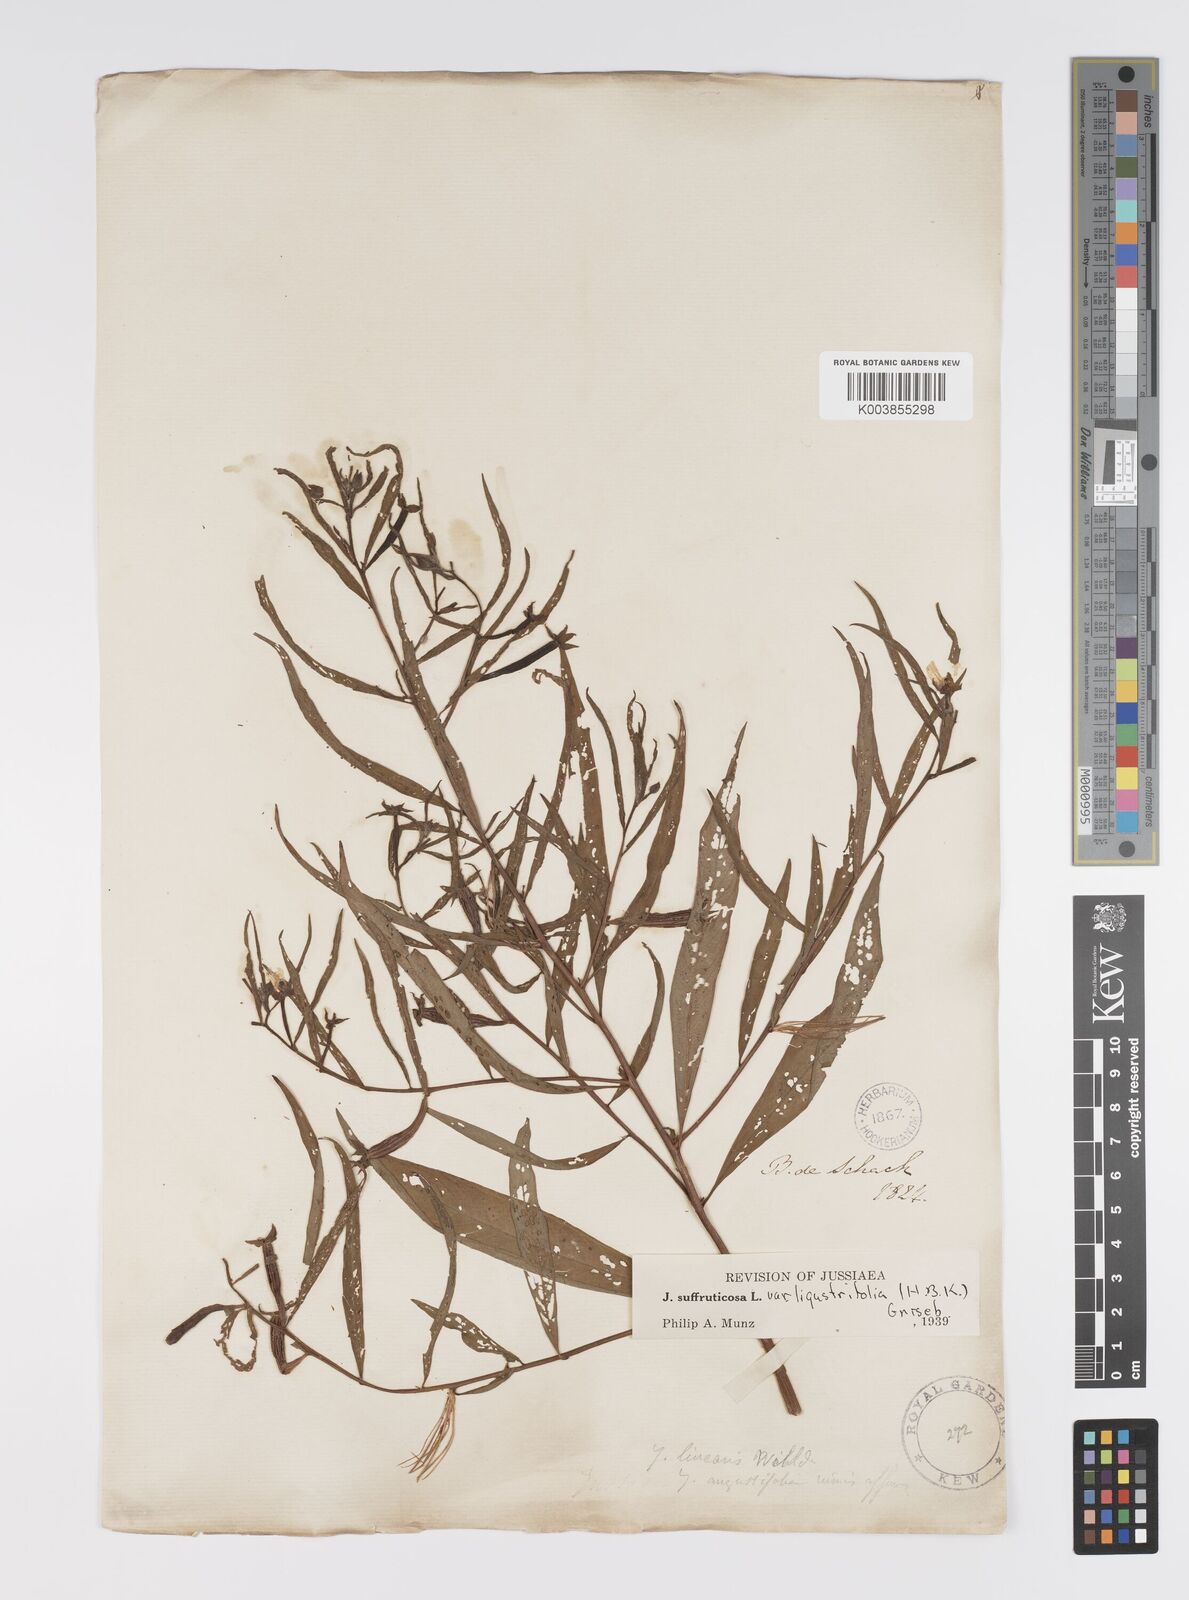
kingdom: Plantae
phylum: Tracheophyta
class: Magnoliopsida
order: Myrtales
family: Onagraceae
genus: Ludwigia
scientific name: Ludwigia
